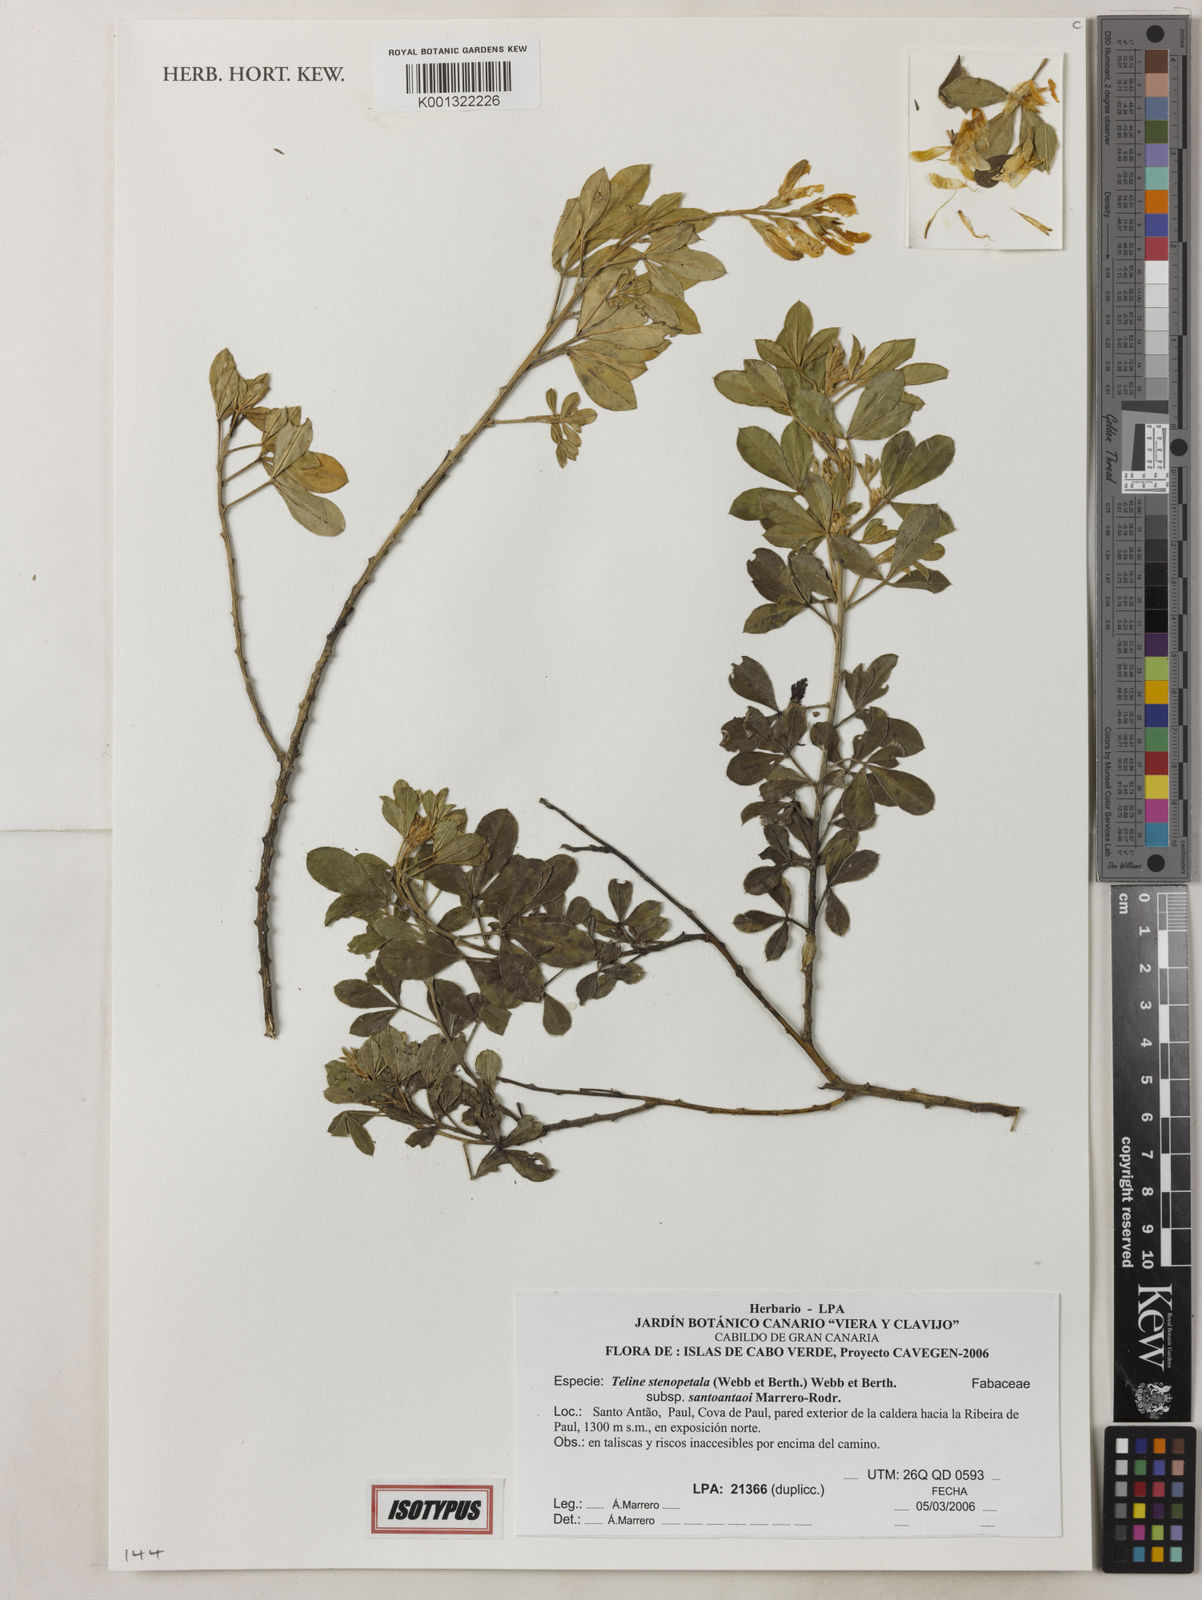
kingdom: Plantae
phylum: Tracheophyta
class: Magnoliopsida
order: Fabales
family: Fabaceae
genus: Genista
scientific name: Genista stenopetala
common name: Leafy broom
